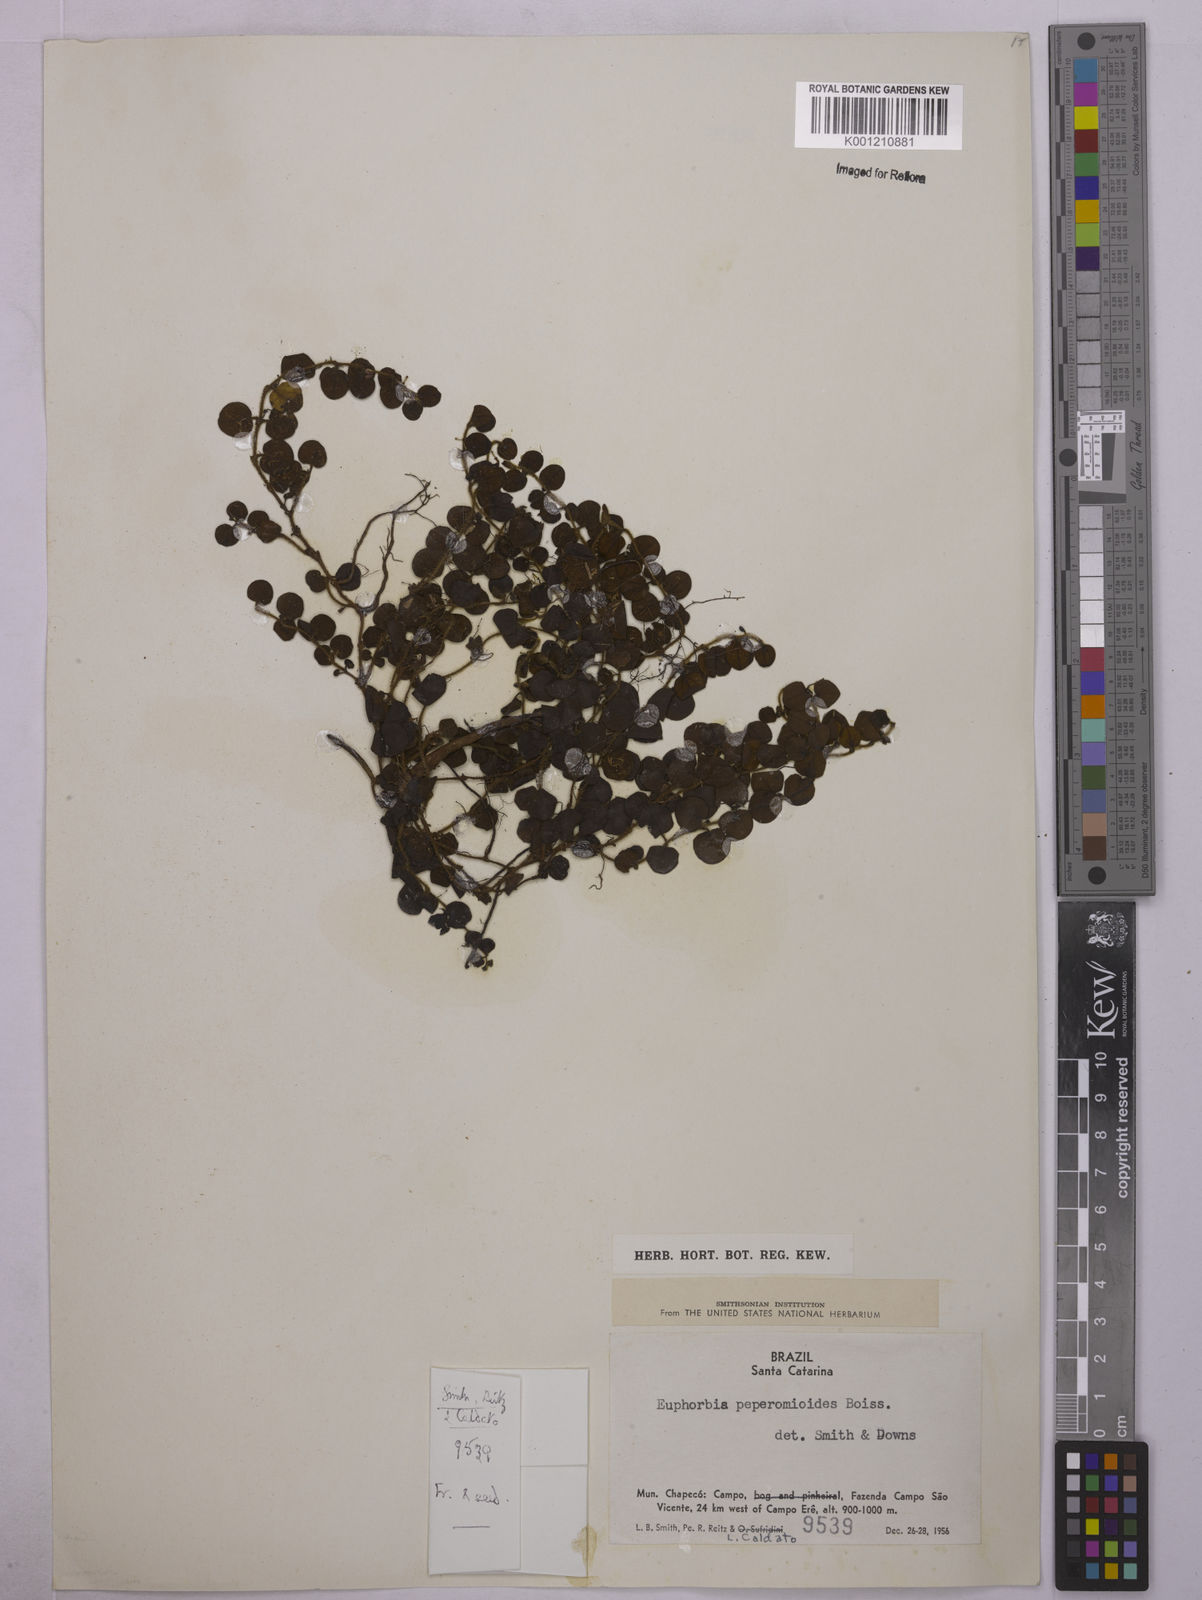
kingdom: Plantae
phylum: Tracheophyta
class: Magnoliopsida
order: Malpighiales
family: Euphorbiaceae
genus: Euphorbia
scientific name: Euphorbia peperomioides
